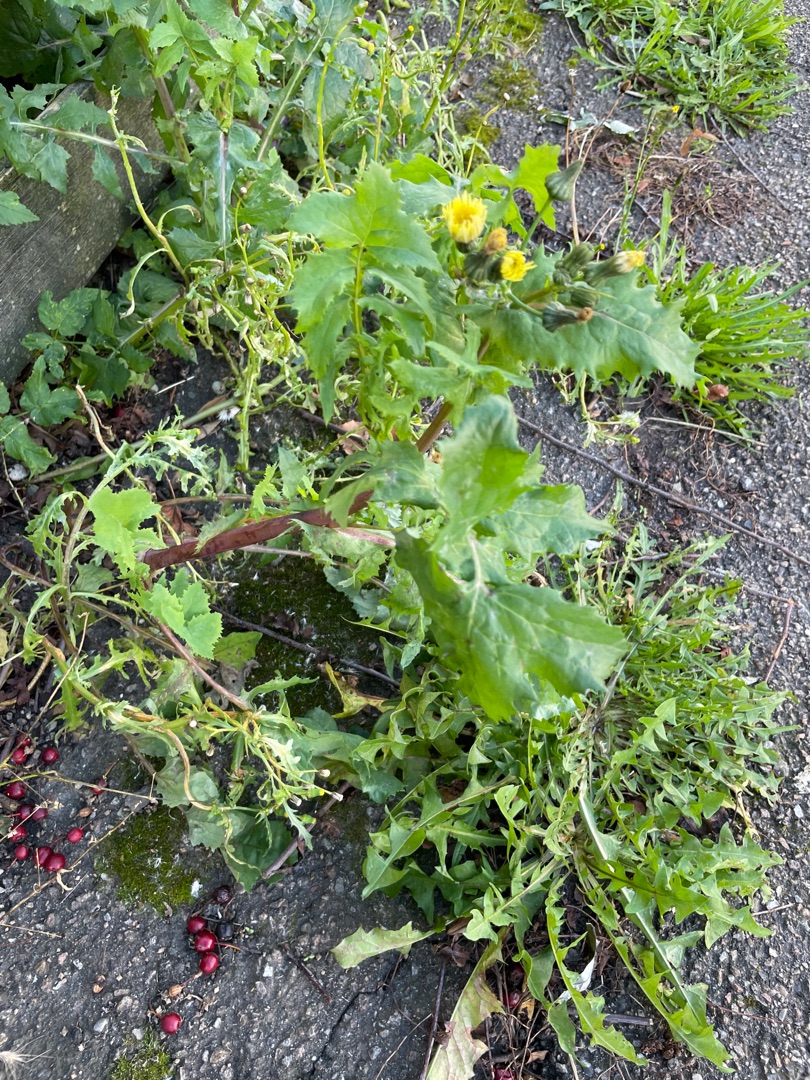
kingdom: Plantae
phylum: Tracheophyta
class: Magnoliopsida
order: Asterales
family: Asteraceae
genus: Sonchus
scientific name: Sonchus oleraceus
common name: Almindelig svinemælk
